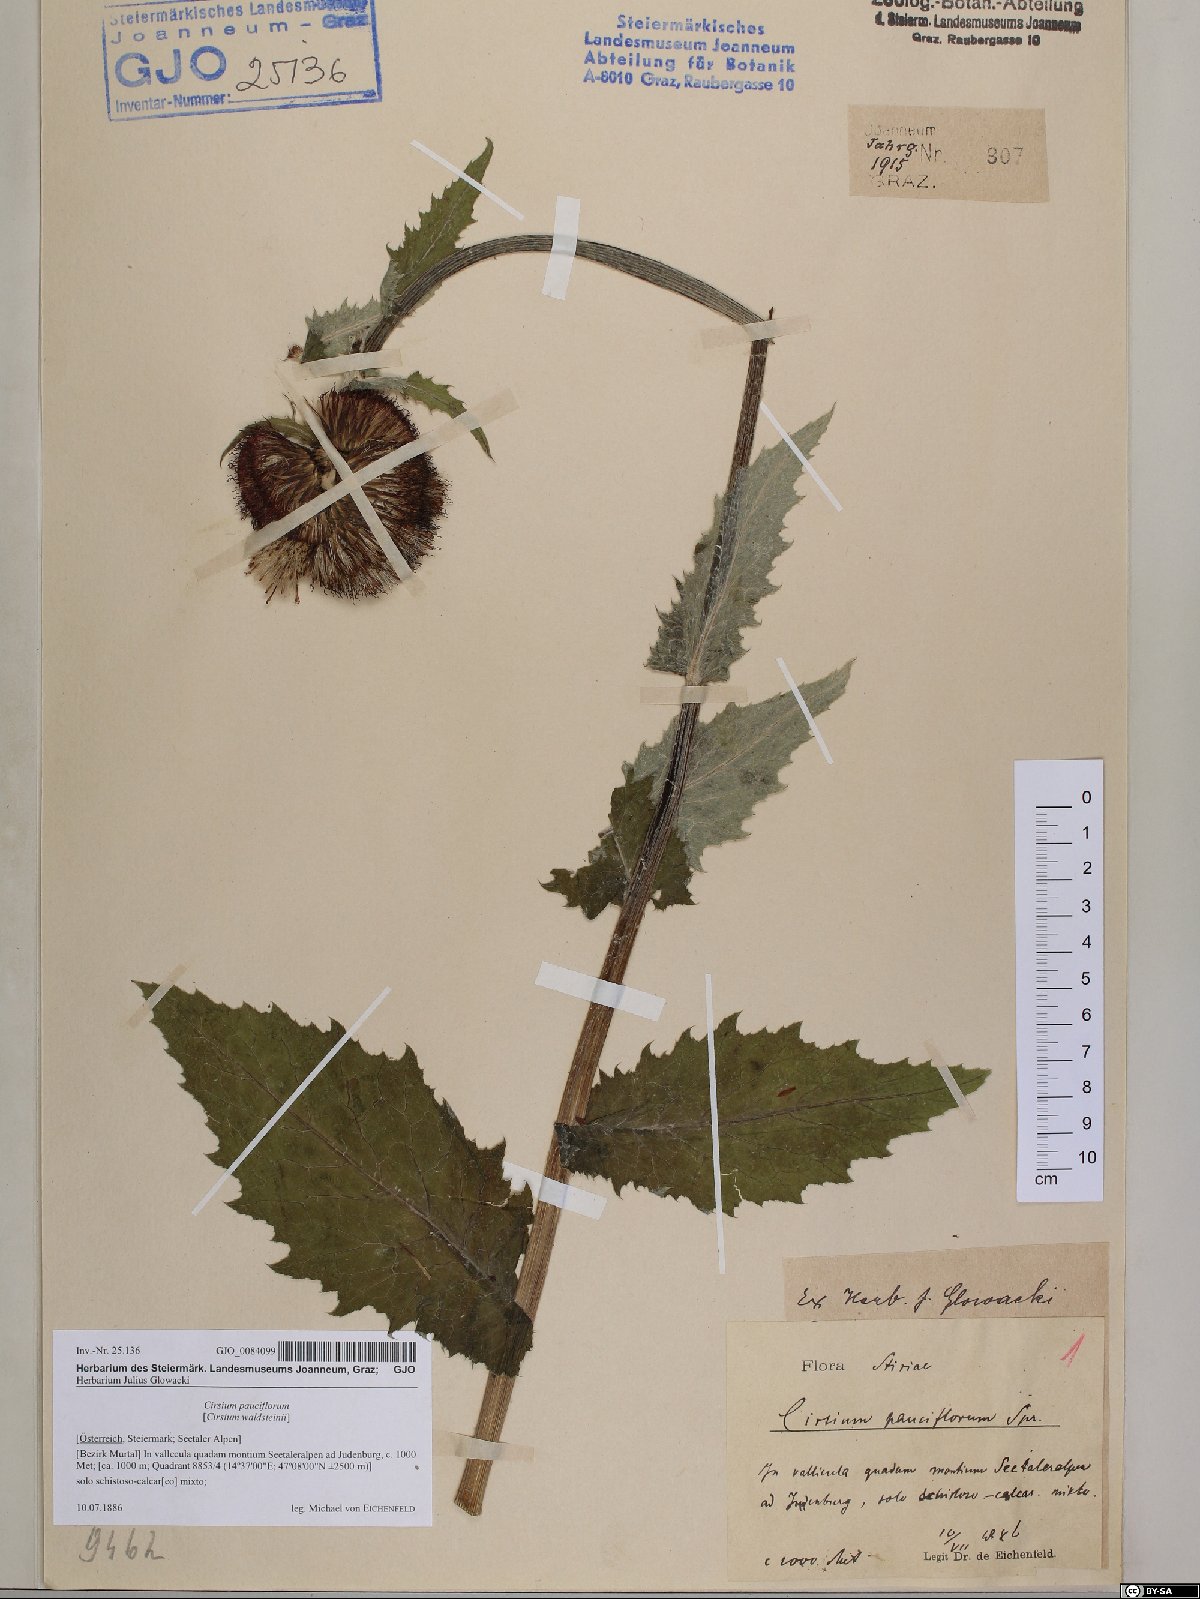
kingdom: Plantae
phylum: Tracheophyta
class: Magnoliopsida
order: Asterales
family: Asteraceae
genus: Cirsium
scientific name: Cirsium greimleri
